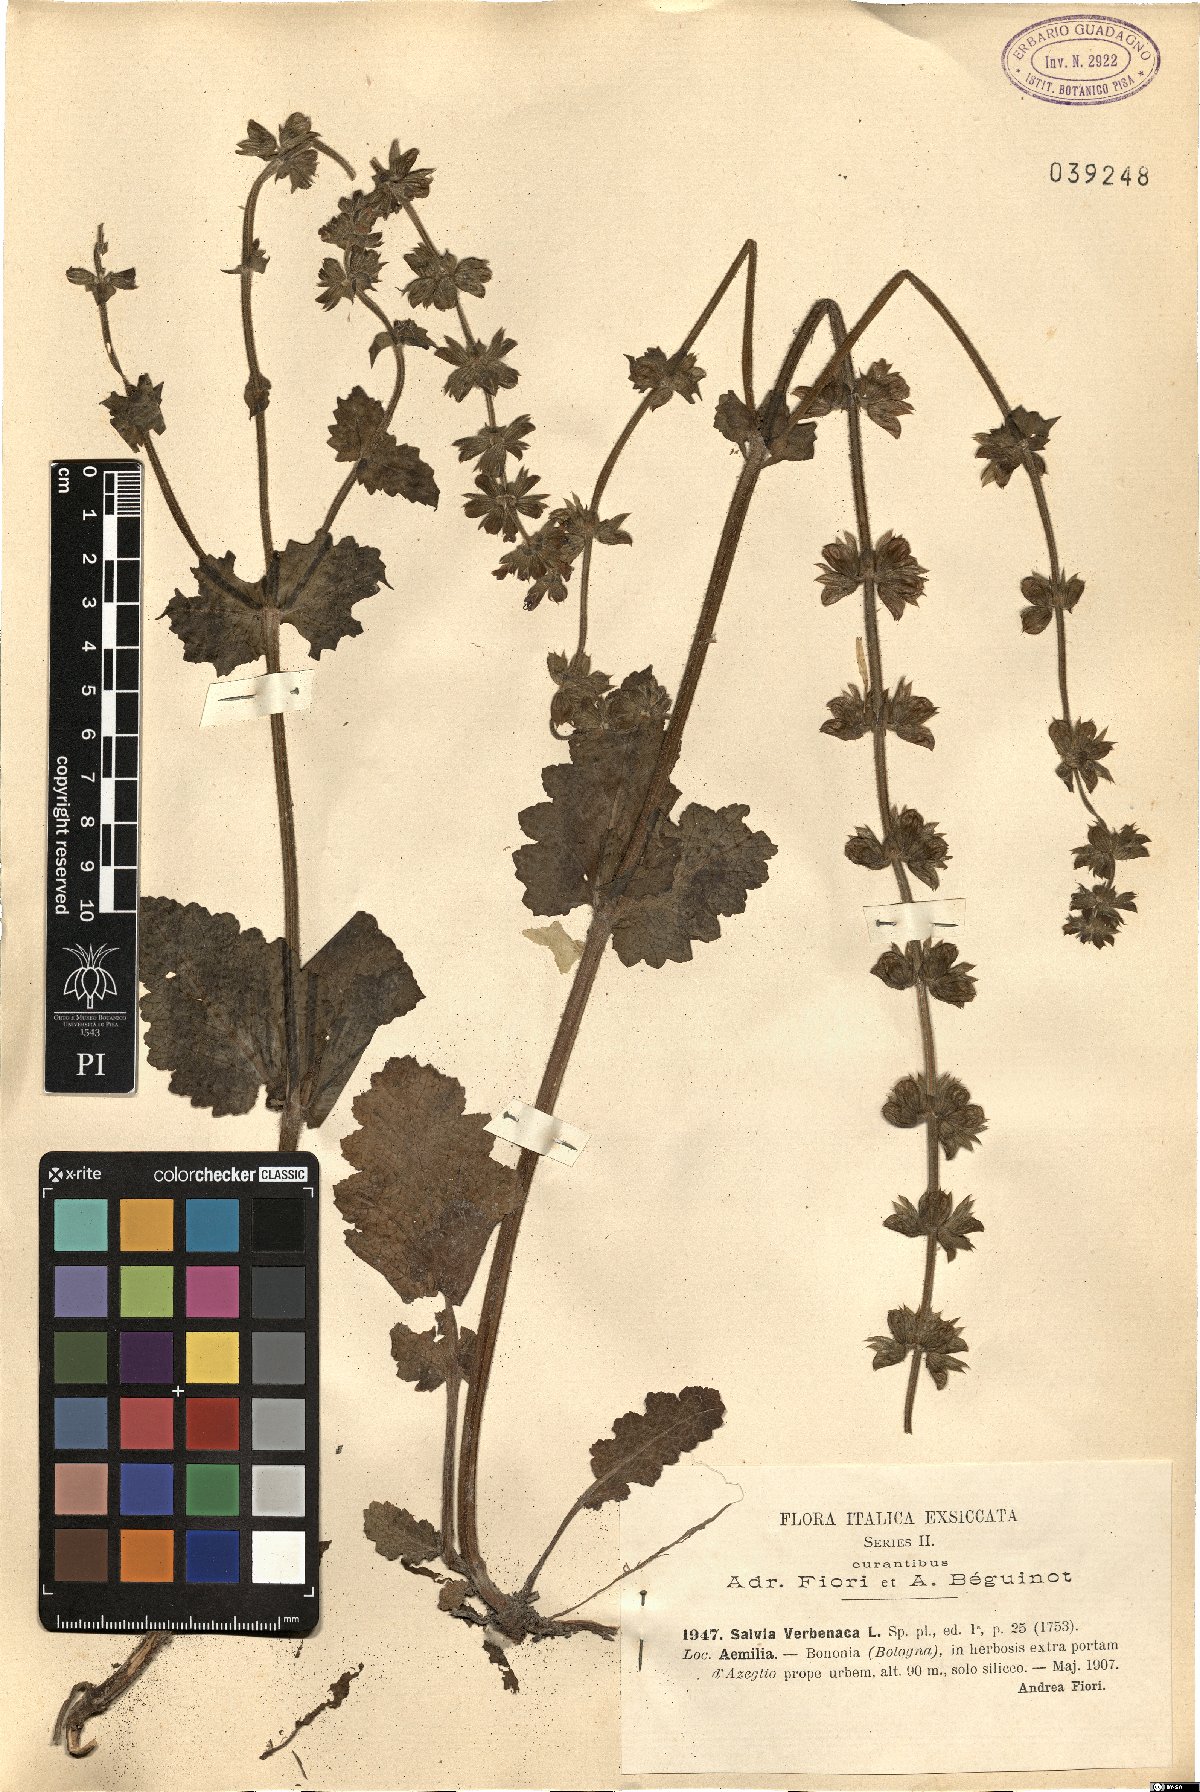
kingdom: Plantae
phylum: Tracheophyta
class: Magnoliopsida
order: Lamiales
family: Lamiaceae
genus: Salvia
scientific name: Salvia verbenaca
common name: Wild clary
